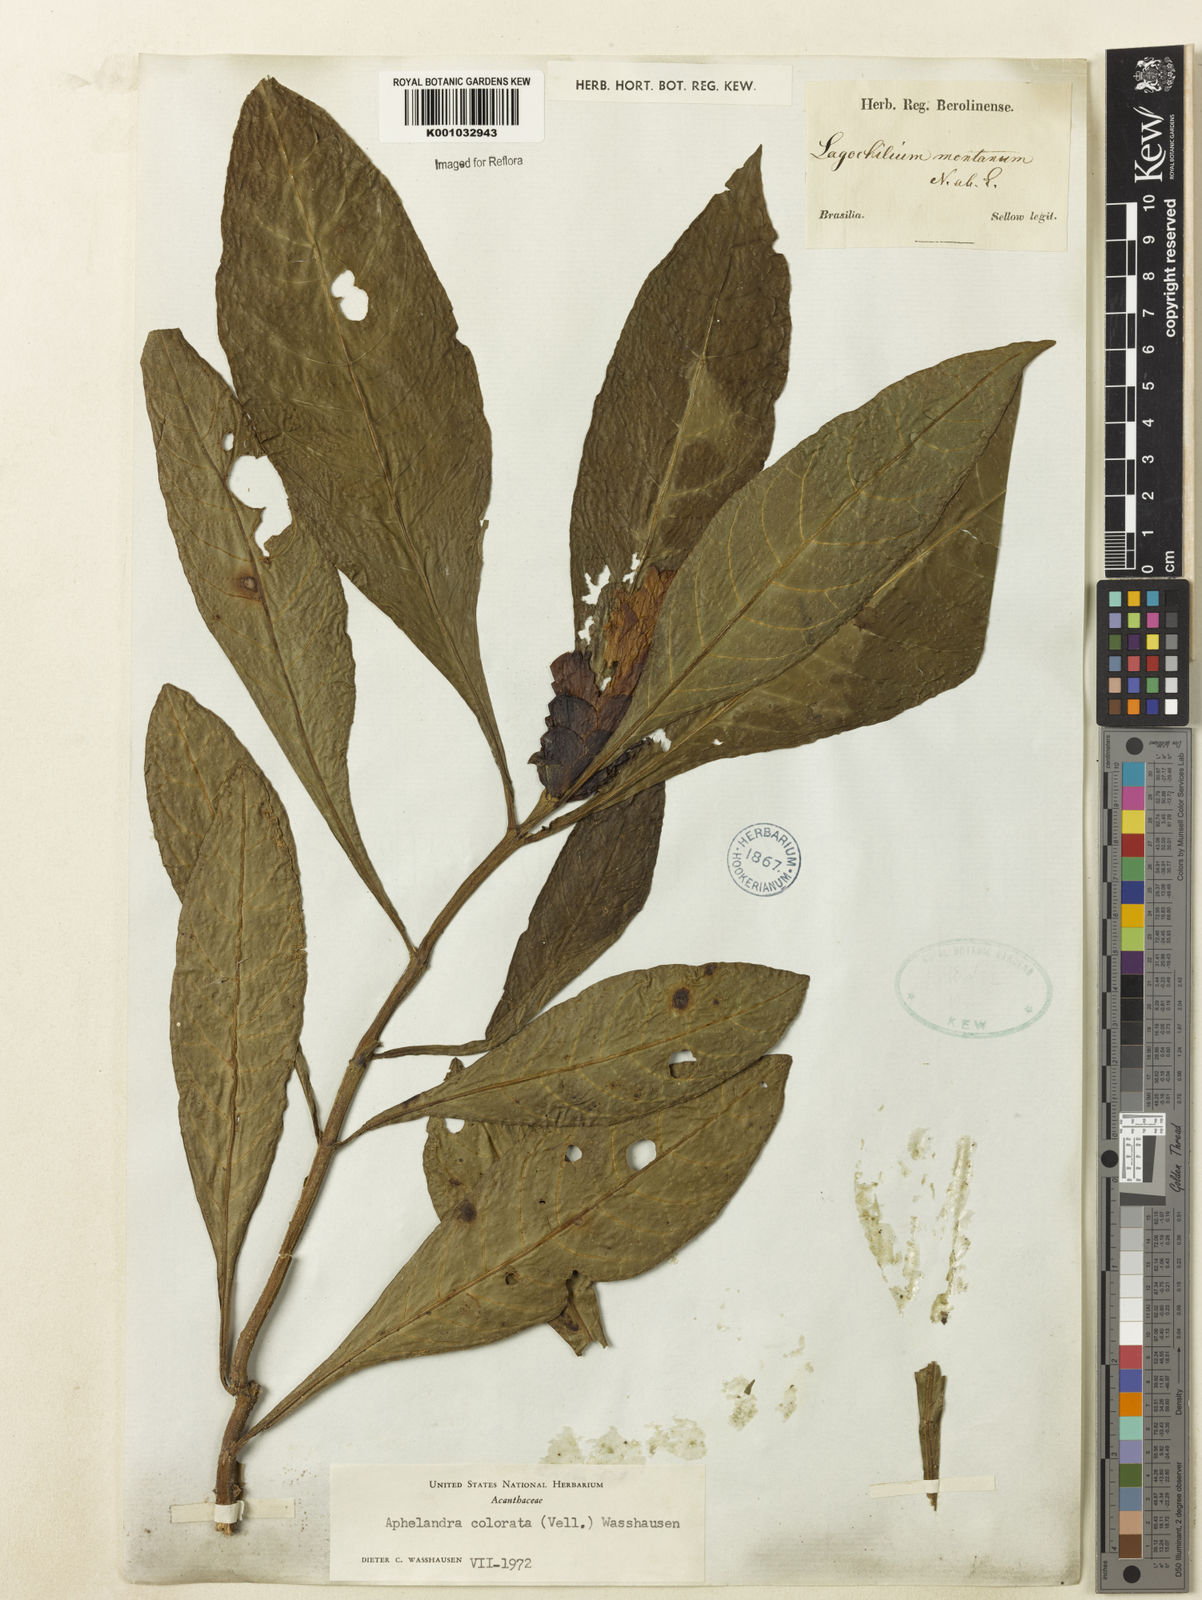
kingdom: Plantae
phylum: Tracheophyta
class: Magnoliopsida
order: Lamiales
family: Acanthaceae
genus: Aphelandra
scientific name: Aphelandra colorata
